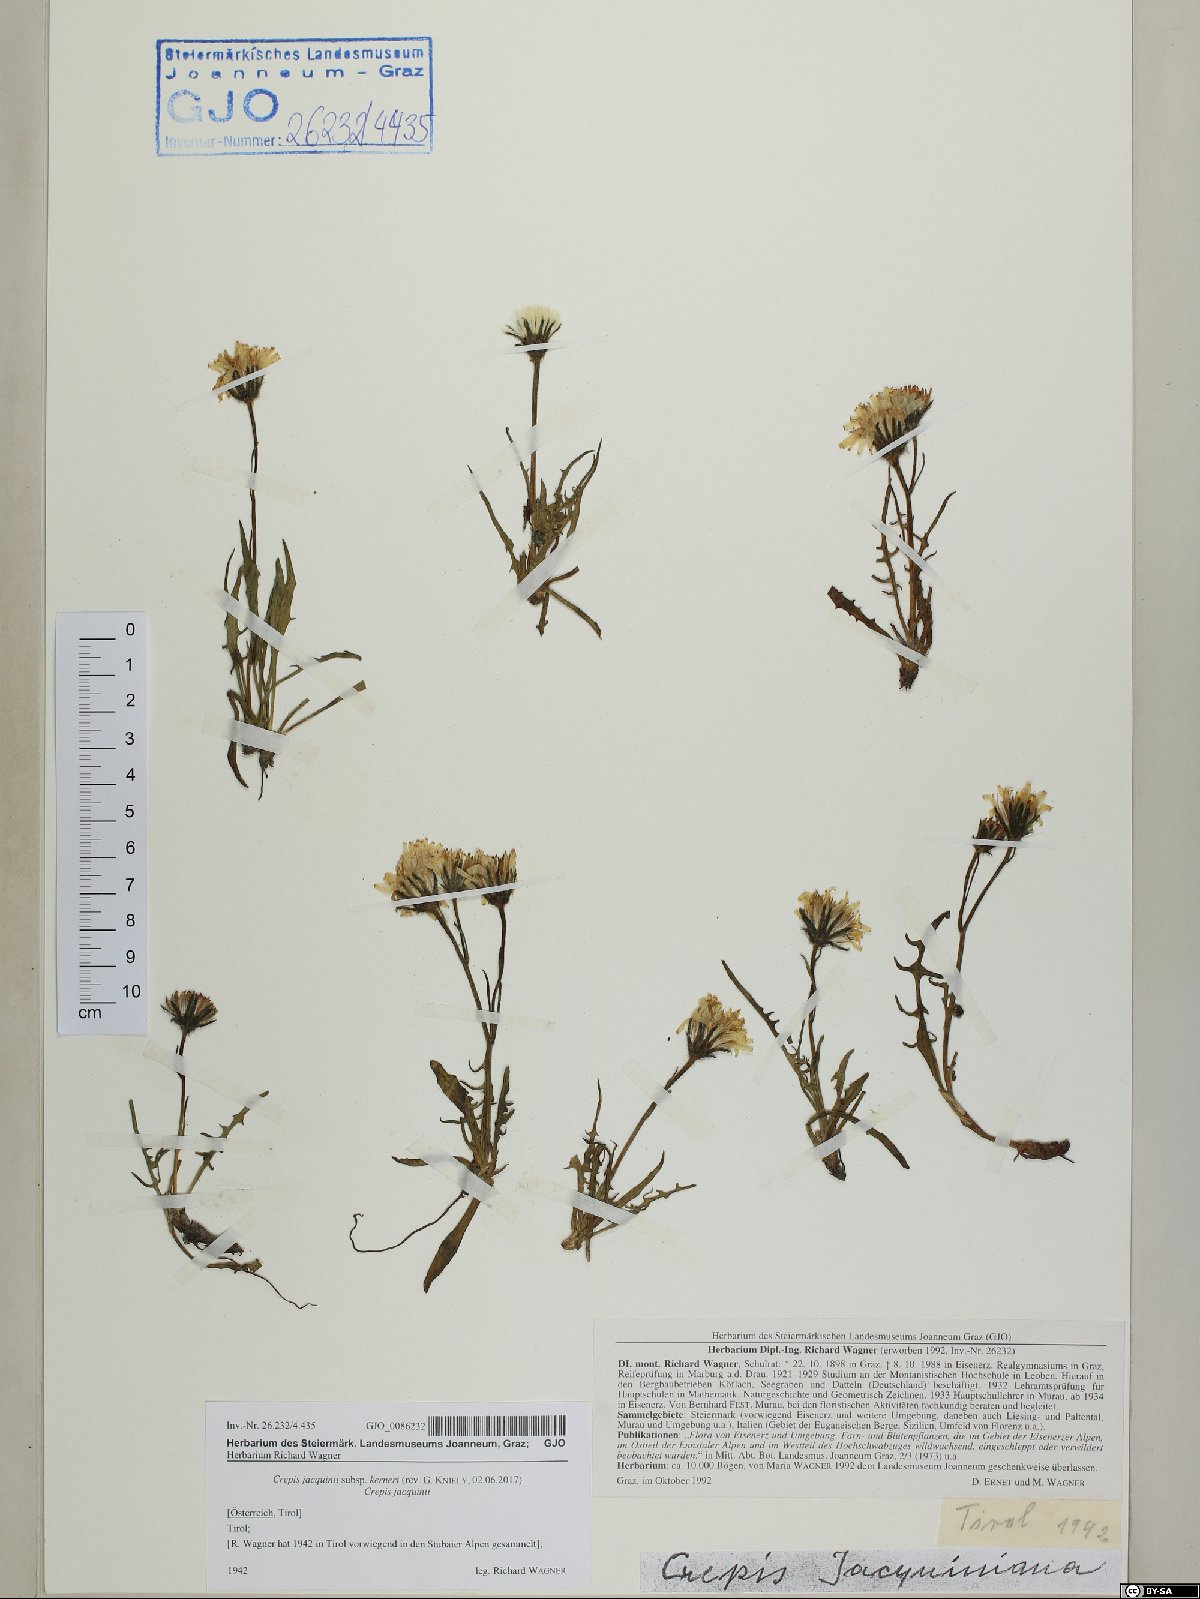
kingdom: Plantae
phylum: Tracheophyta
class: Magnoliopsida
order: Asterales
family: Asteraceae
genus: Crepis
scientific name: Crepis jacquinii
